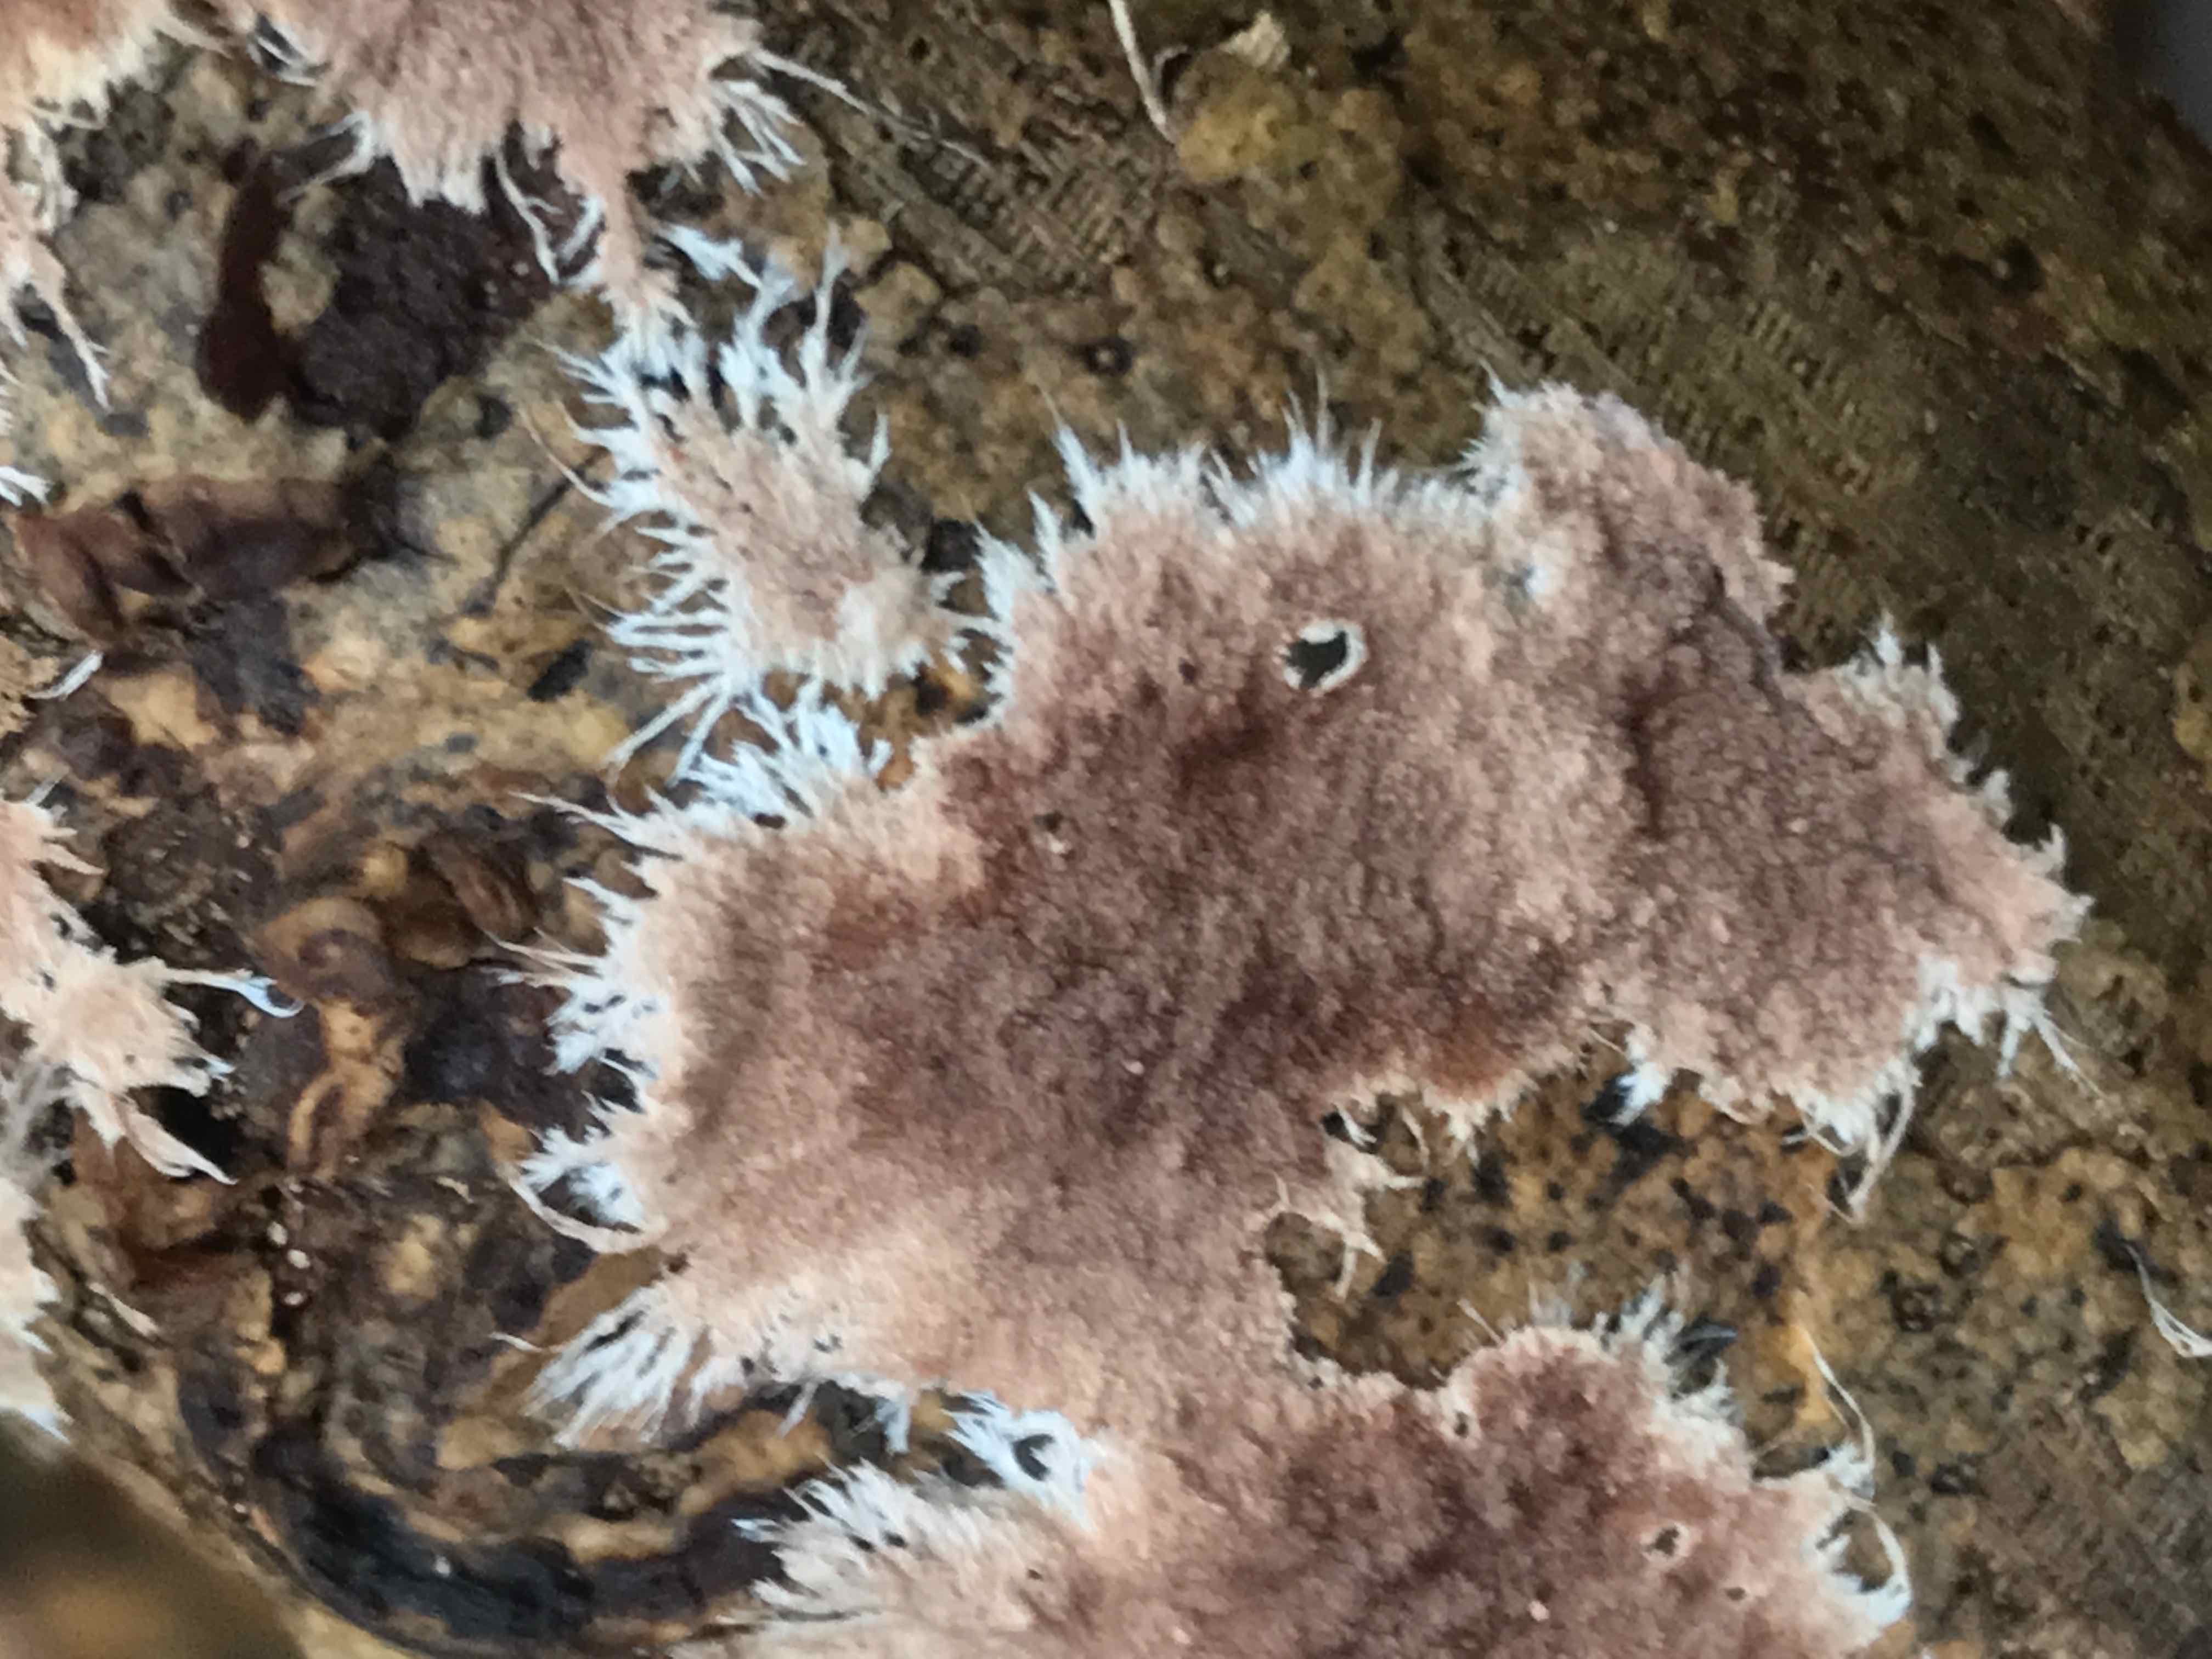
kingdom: Fungi
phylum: Basidiomycota
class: Agaricomycetes
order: Polyporales
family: Steccherinaceae
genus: Steccherinum
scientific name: Steccherinum fimbriatum
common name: trådet skønpig
